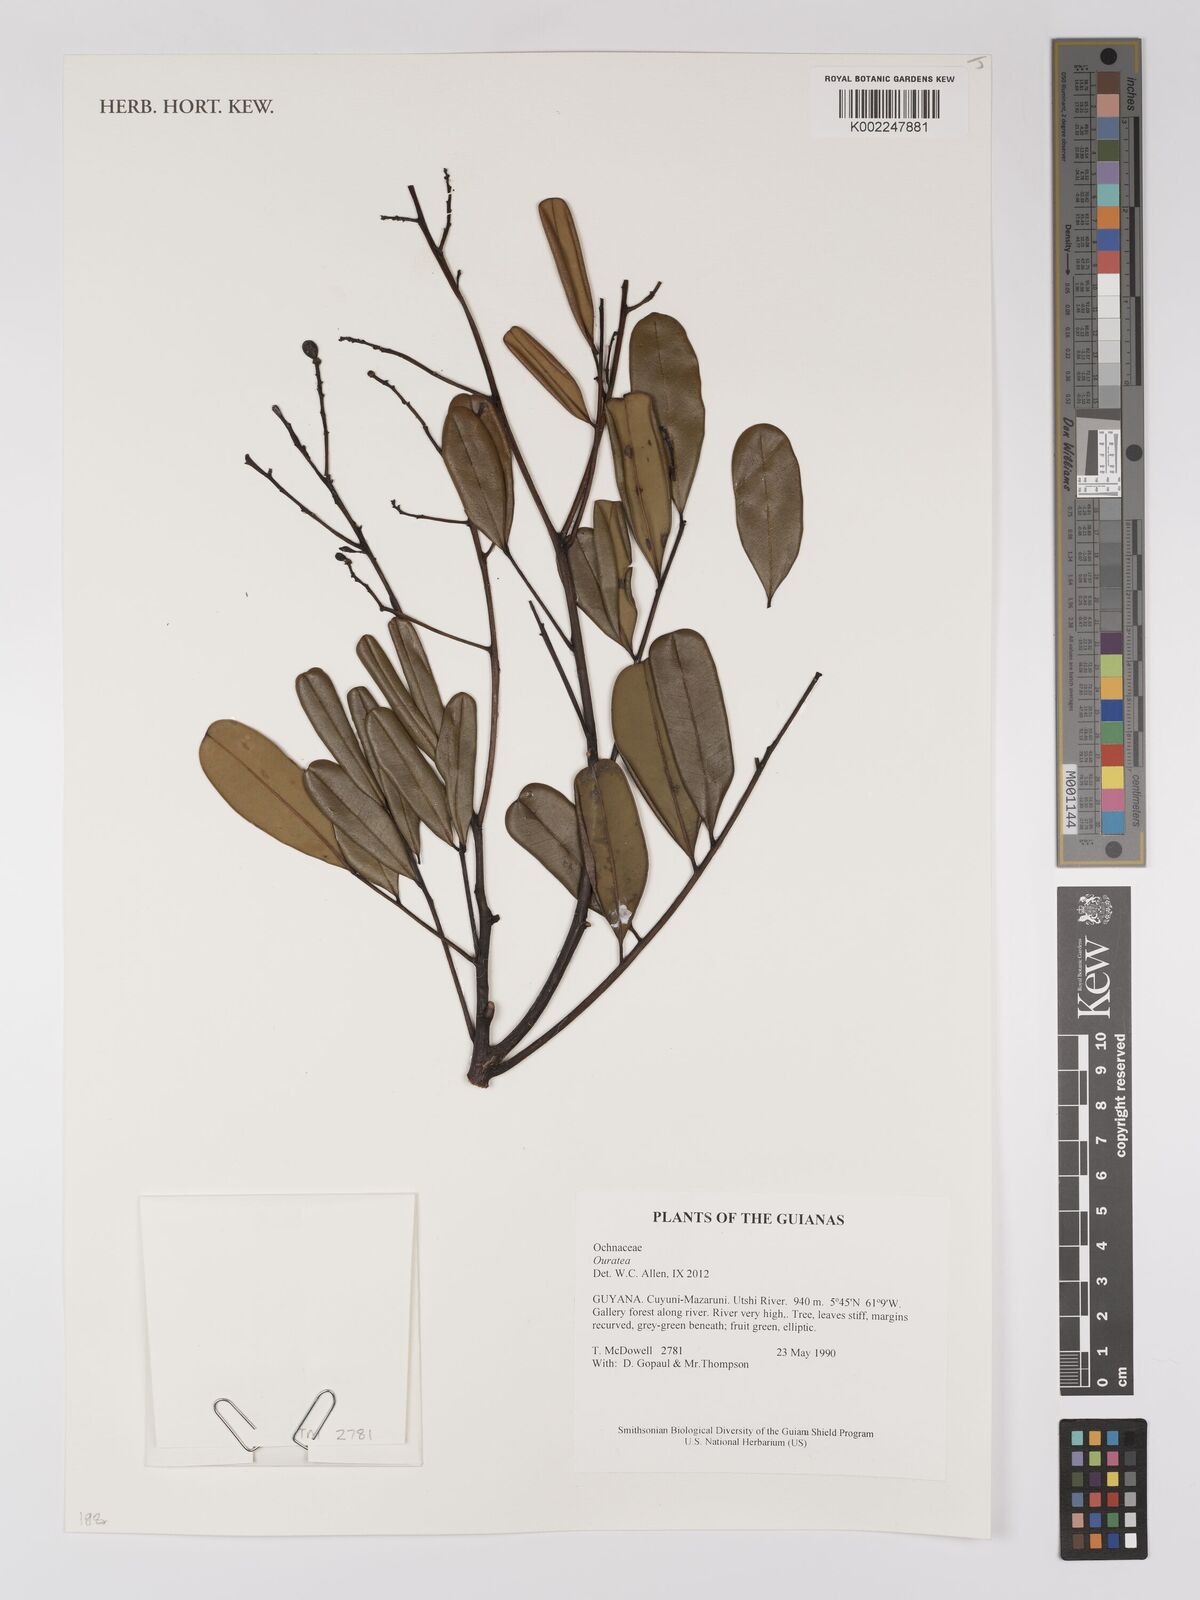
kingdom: Plantae
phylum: Tracheophyta
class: Magnoliopsida
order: Malpighiales
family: Ochnaceae
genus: Ouratea
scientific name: Ouratea longifolia
